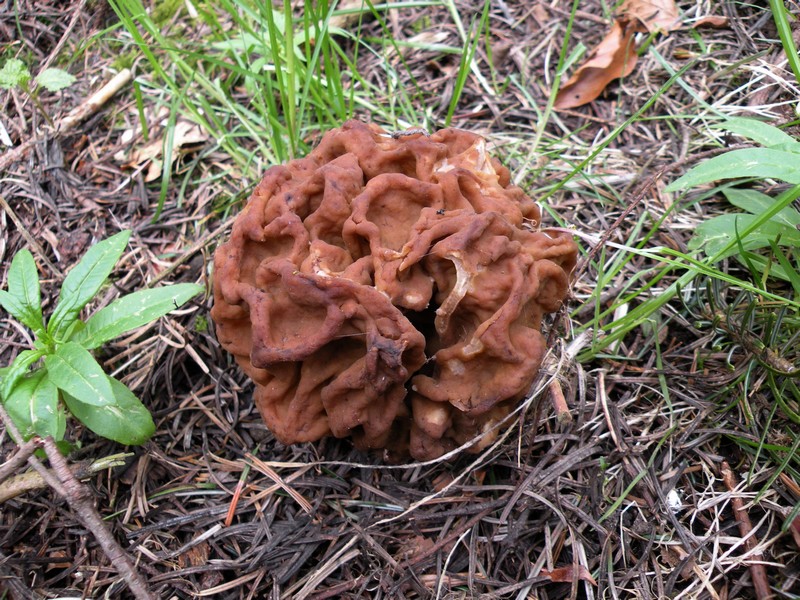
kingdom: Fungi
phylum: Ascomycota
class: Pezizomycetes
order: Pezizales
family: Discinaceae
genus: Gyromitra
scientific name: Gyromitra gigas
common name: kæmpe-stenmorkel
